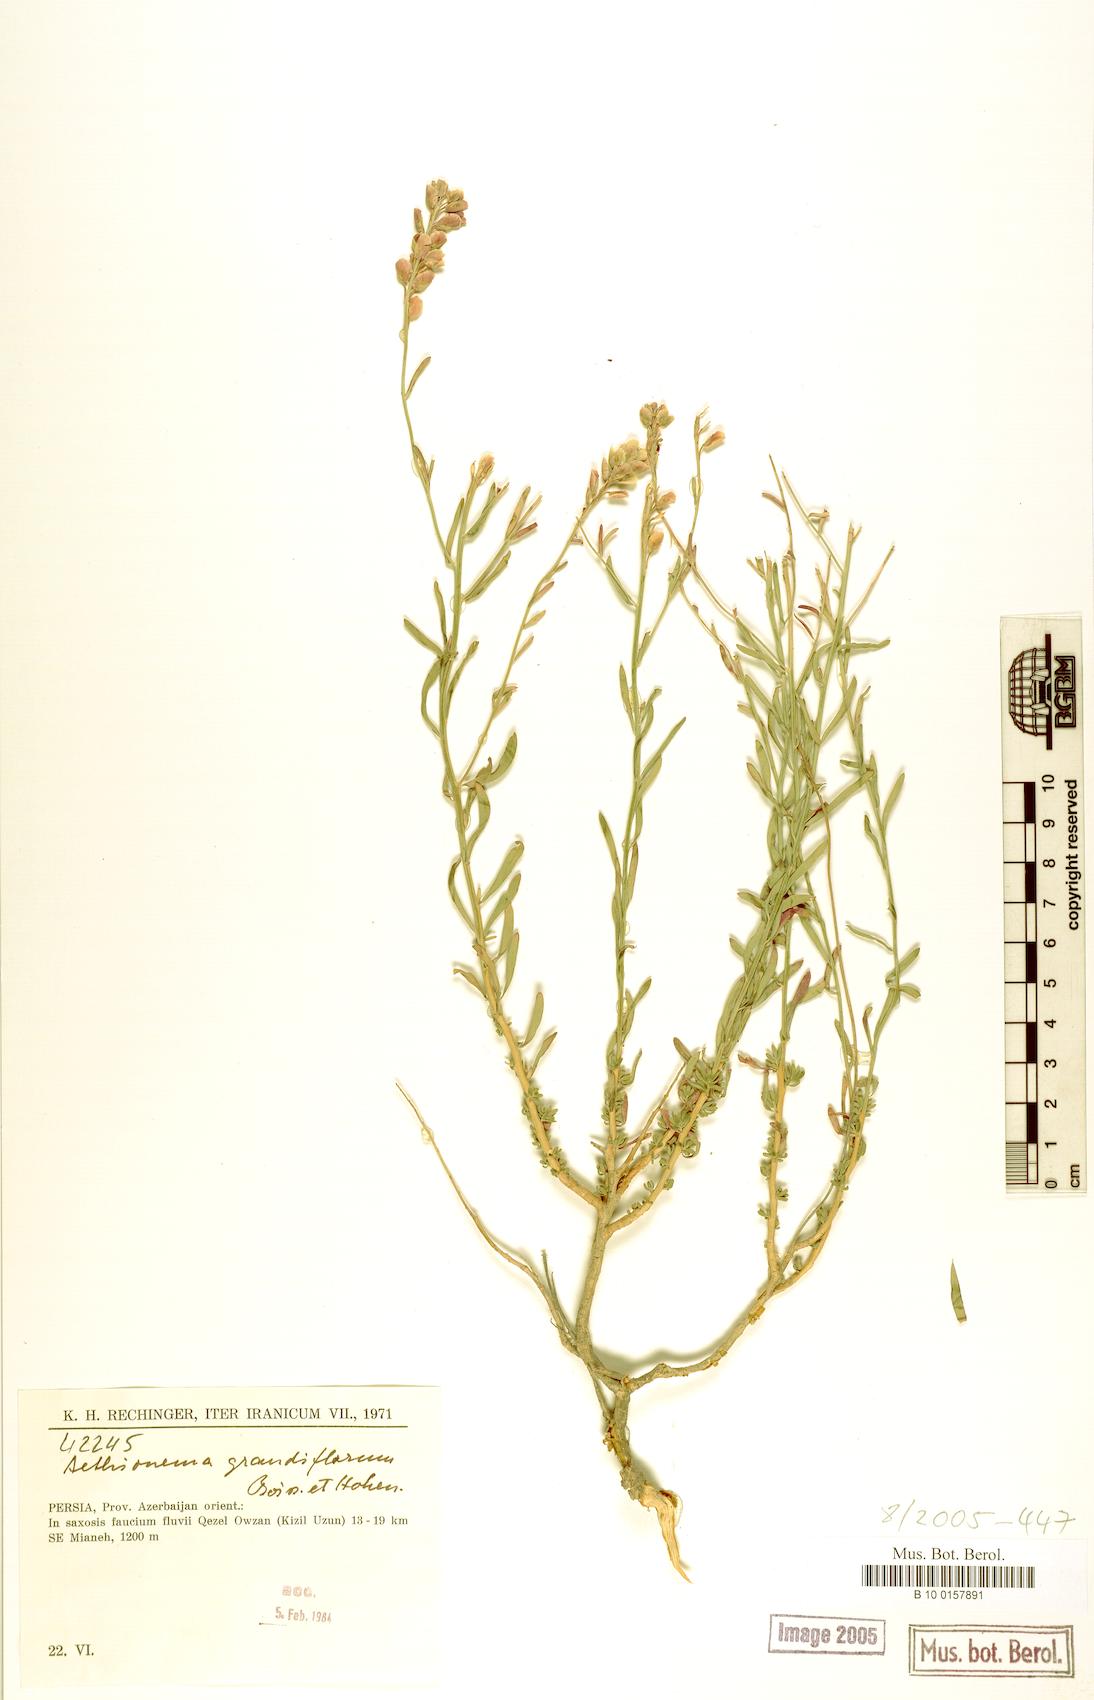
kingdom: Plantae
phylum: Tracheophyta
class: Magnoliopsida
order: Brassicales
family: Brassicaceae
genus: Aethionema
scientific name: Aethionema grandiflorum
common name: Persian stonecress
